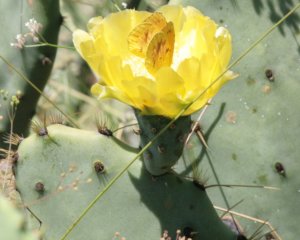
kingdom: Animalia
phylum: Arthropoda
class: Insecta
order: Lepidoptera
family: Pieridae
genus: Abaeis
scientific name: Abaeis nicippe
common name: Sleepy Orange
